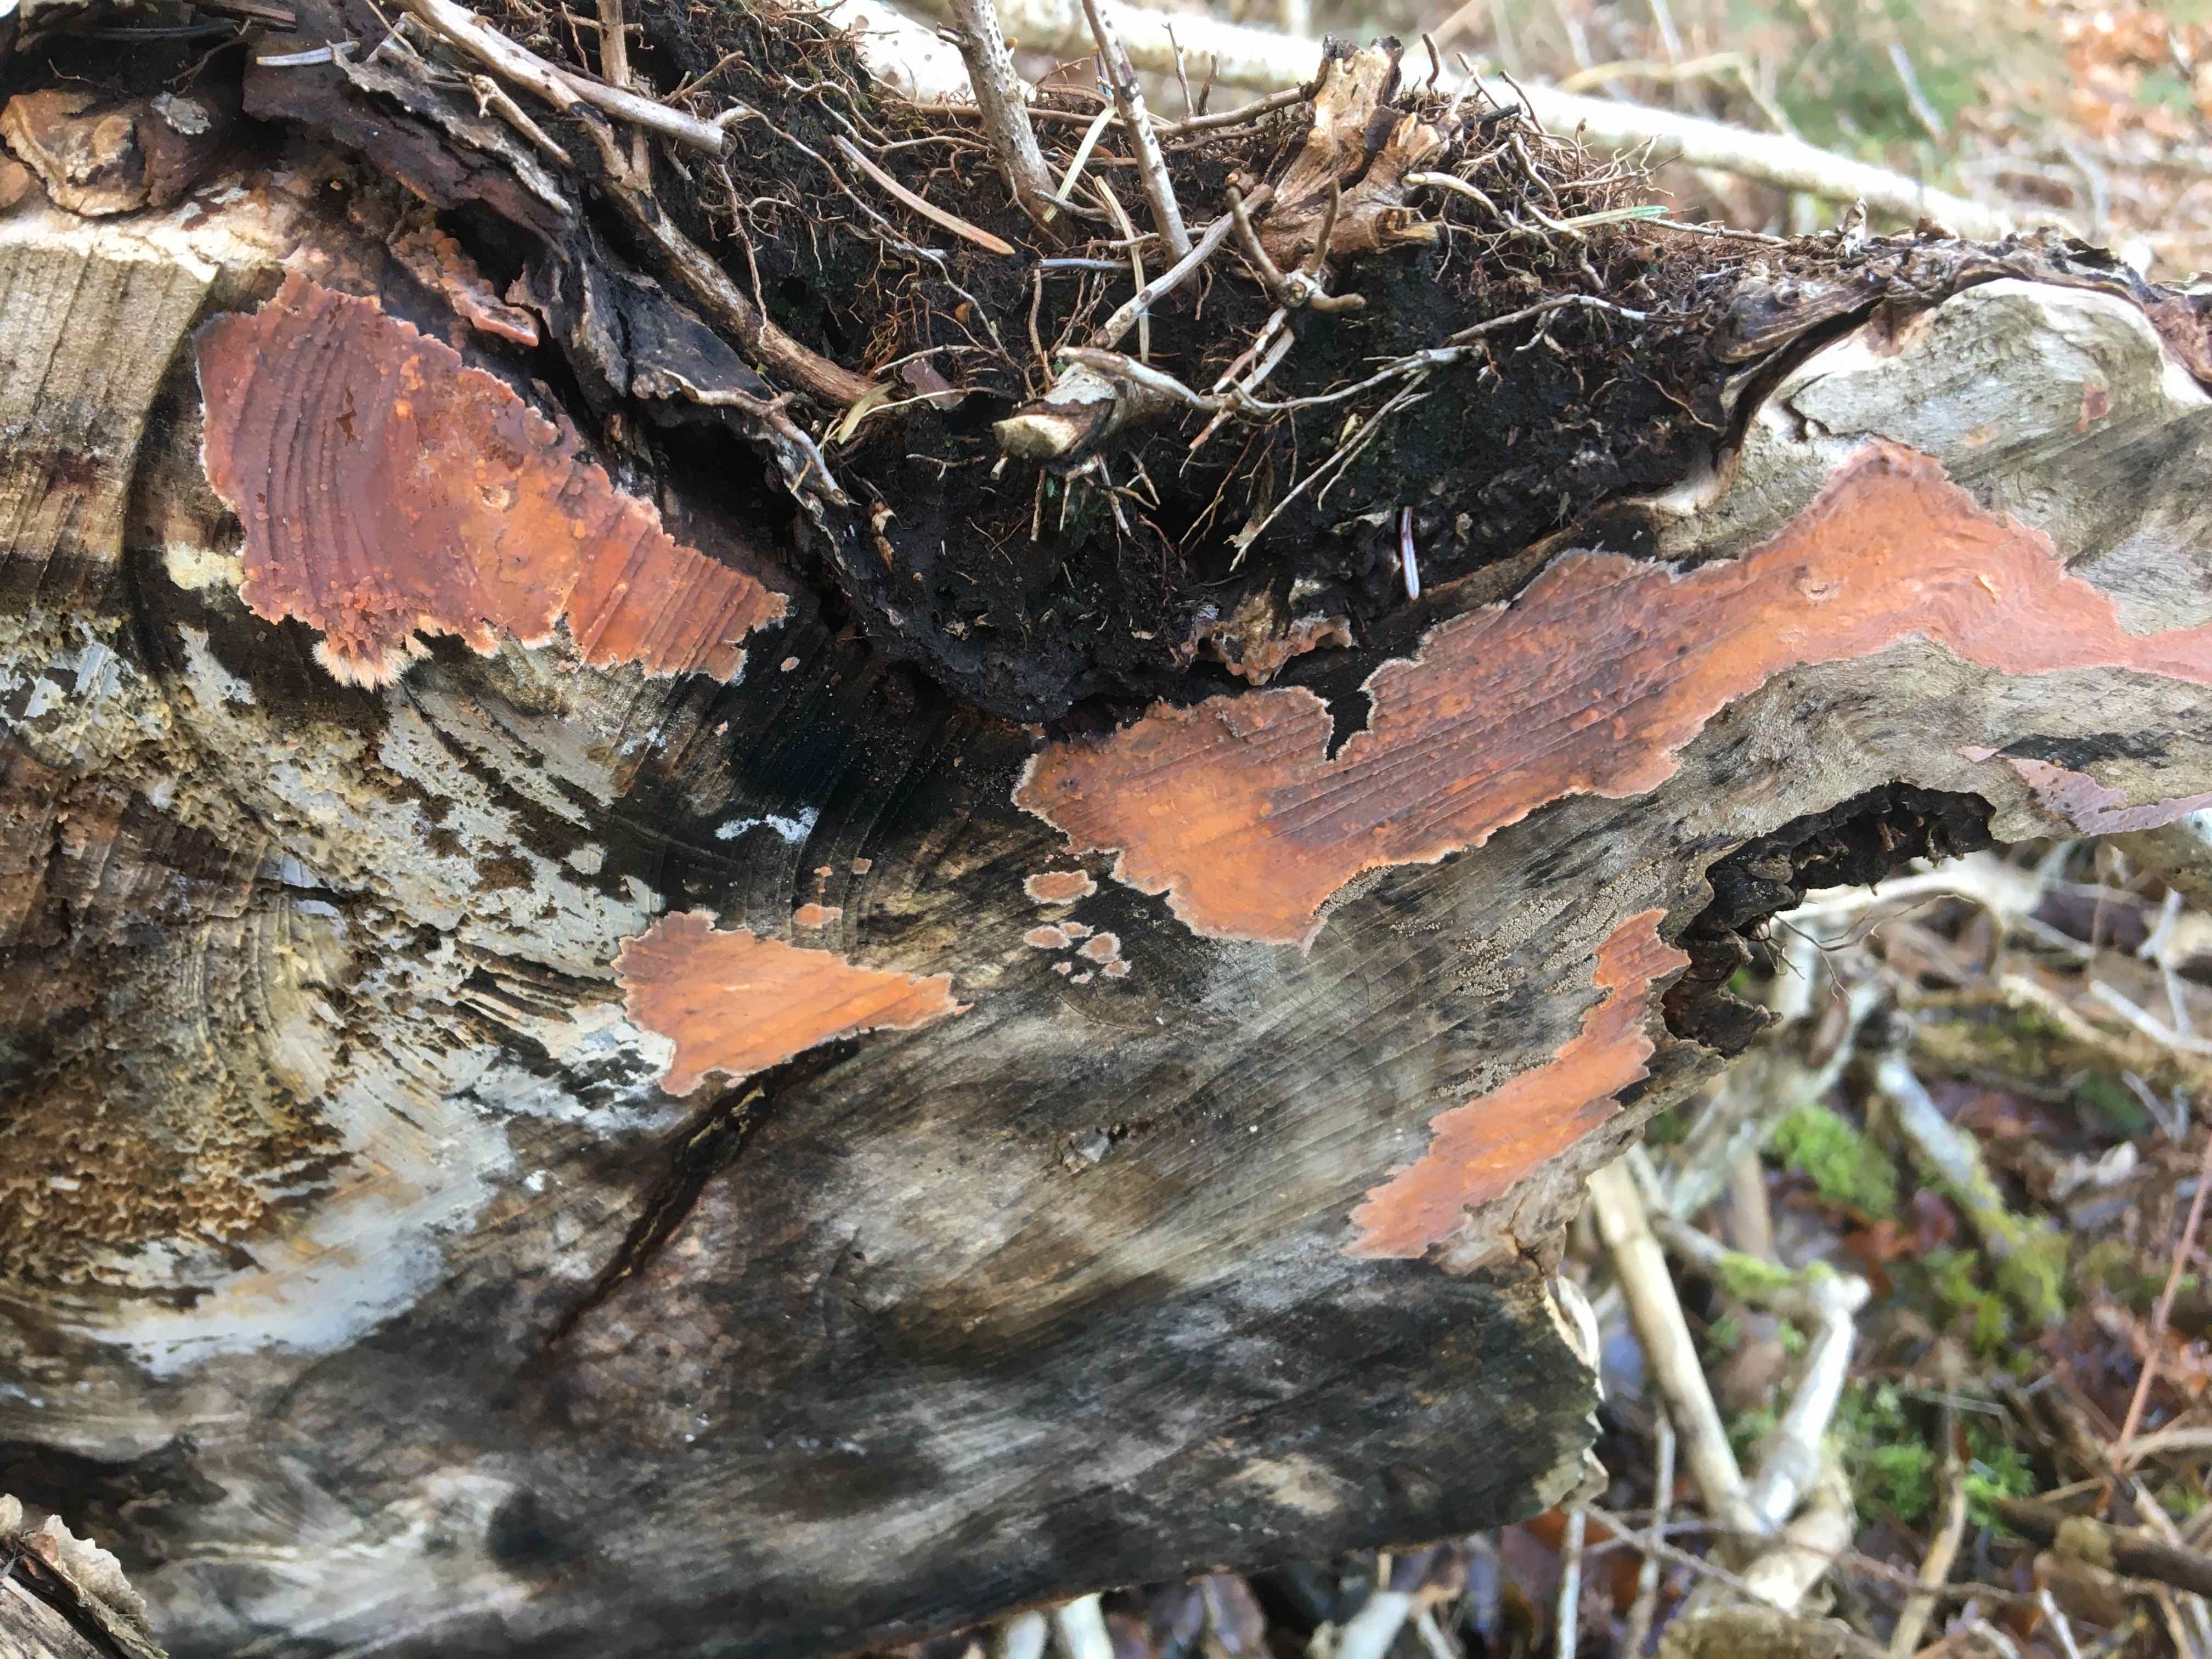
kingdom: Fungi
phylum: Basidiomycota
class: Agaricomycetes
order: Russulales
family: Peniophoraceae
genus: Peniophora
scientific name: Peniophora incarnata
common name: laksefarvet voksskind
